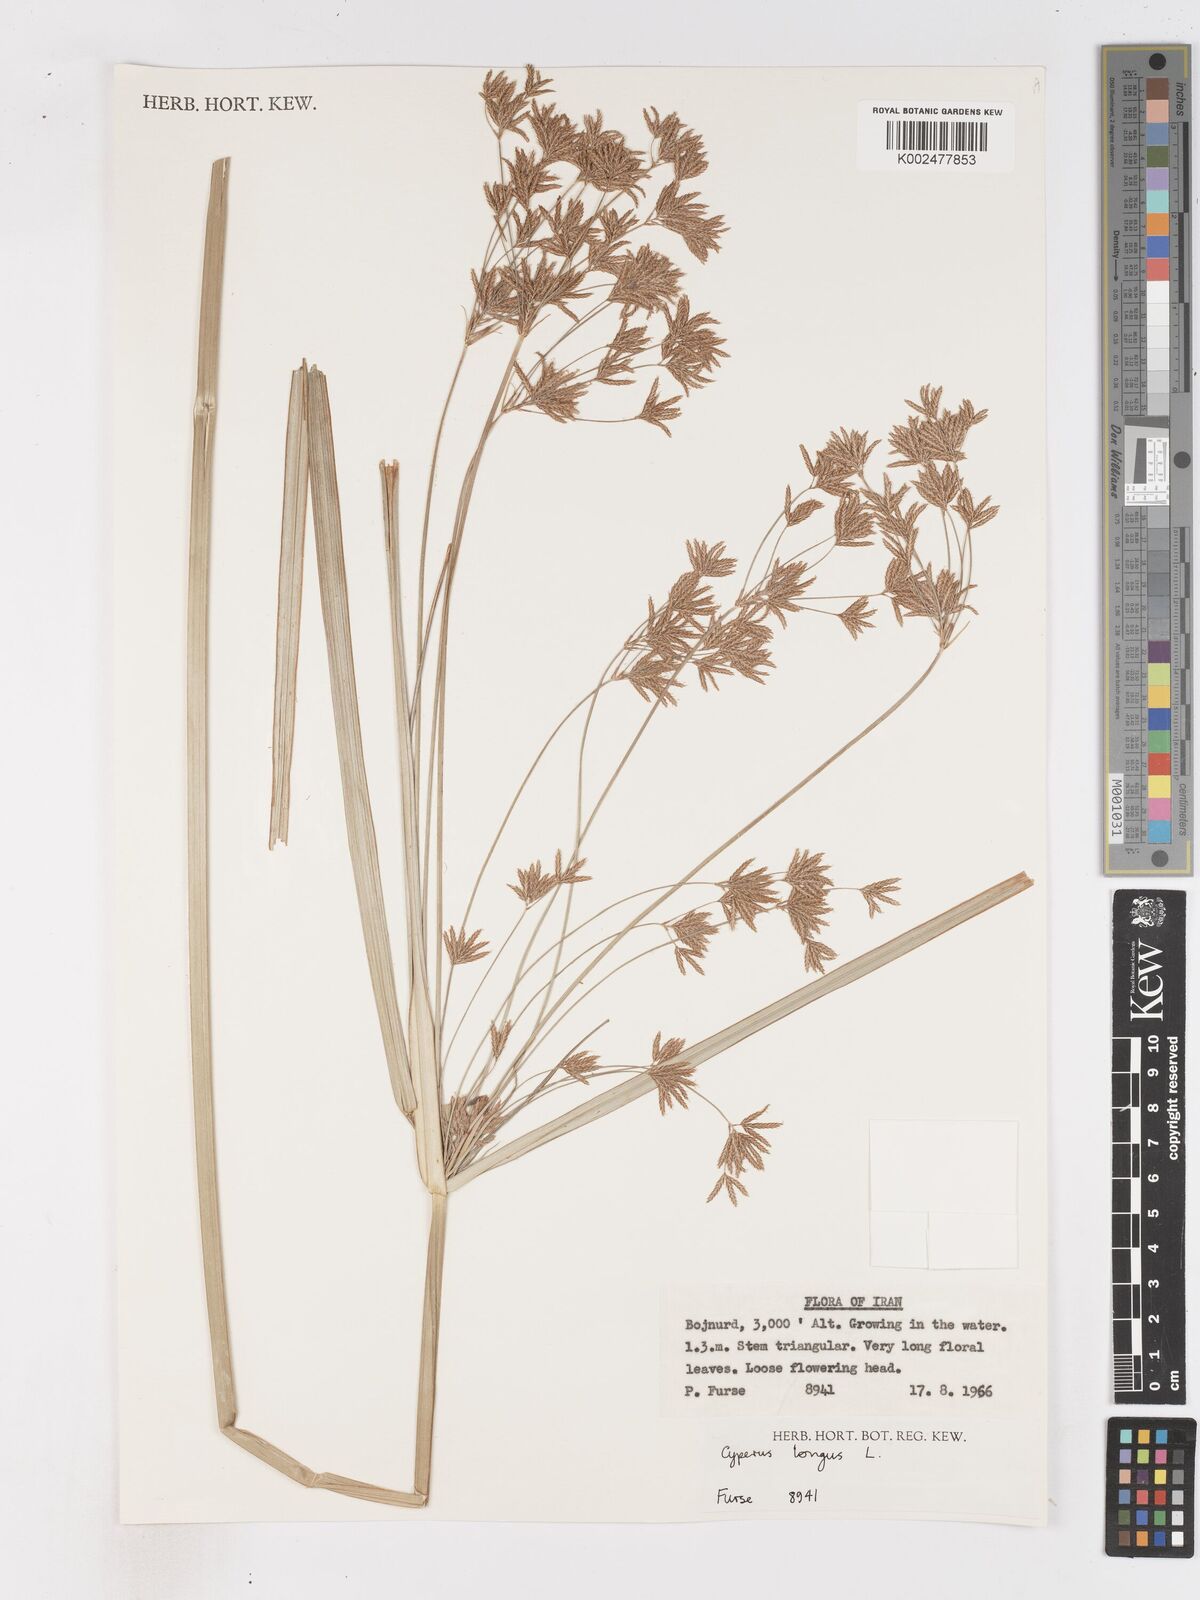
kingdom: Plantae
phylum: Tracheophyta
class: Liliopsida
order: Poales
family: Cyperaceae
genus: Cyperus
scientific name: Cyperus longus
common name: Galingale
